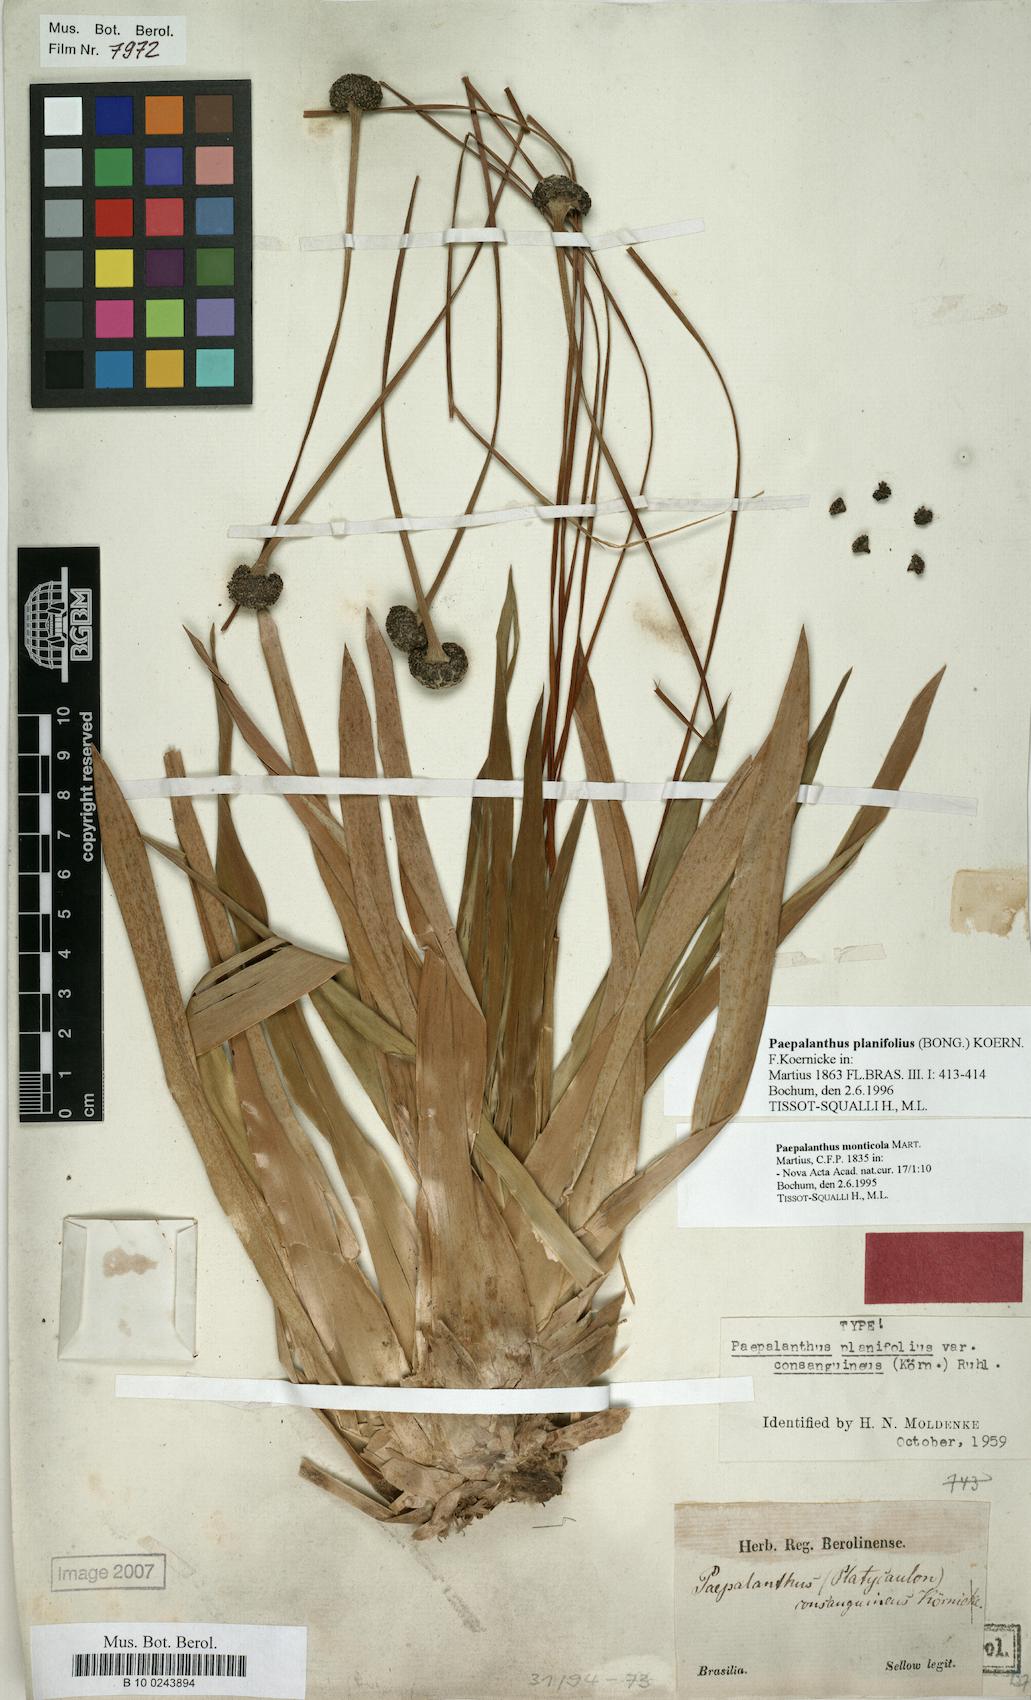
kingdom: Plantae
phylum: Tracheophyta
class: Liliopsida
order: Poales
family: Eriocaulaceae
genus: Paepalanthus
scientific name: Paepalanthus planifolius
